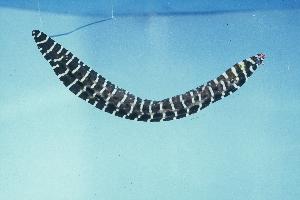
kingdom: Animalia
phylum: Chordata
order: Anguilliformes
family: Muraenidae
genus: Enchelycore
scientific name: Enchelycore pardalis
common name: Dragon moray
